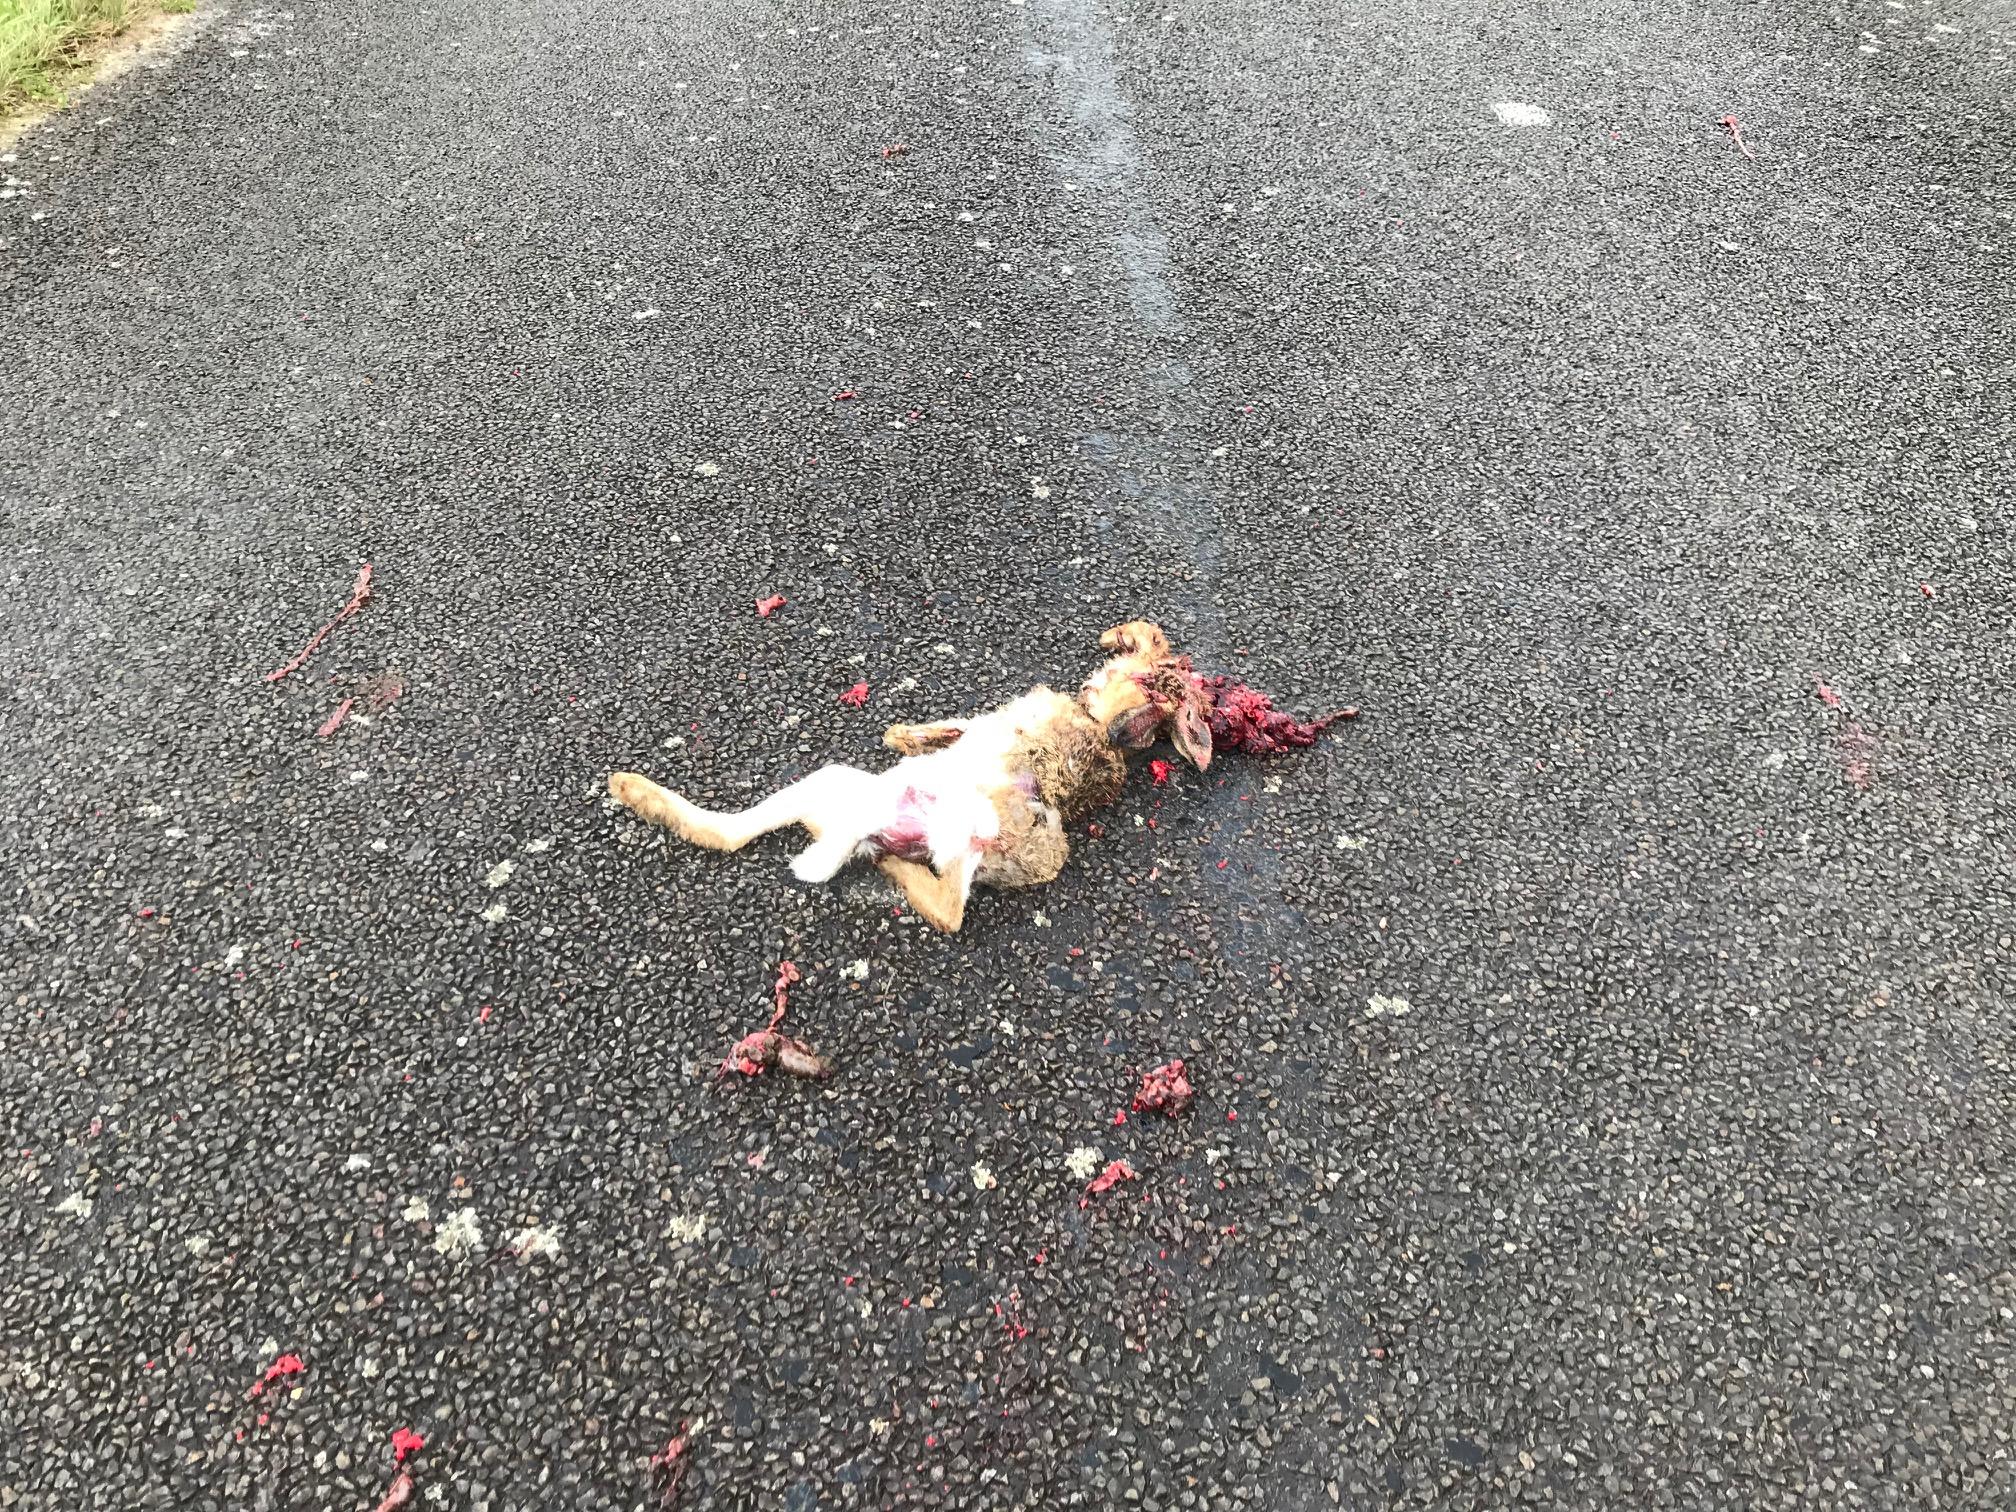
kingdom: Animalia
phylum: Chordata
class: Mammalia
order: Lagomorpha
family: Leporidae
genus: Oryctolagus
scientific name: Oryctolagus cuniculus
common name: European rabbit
